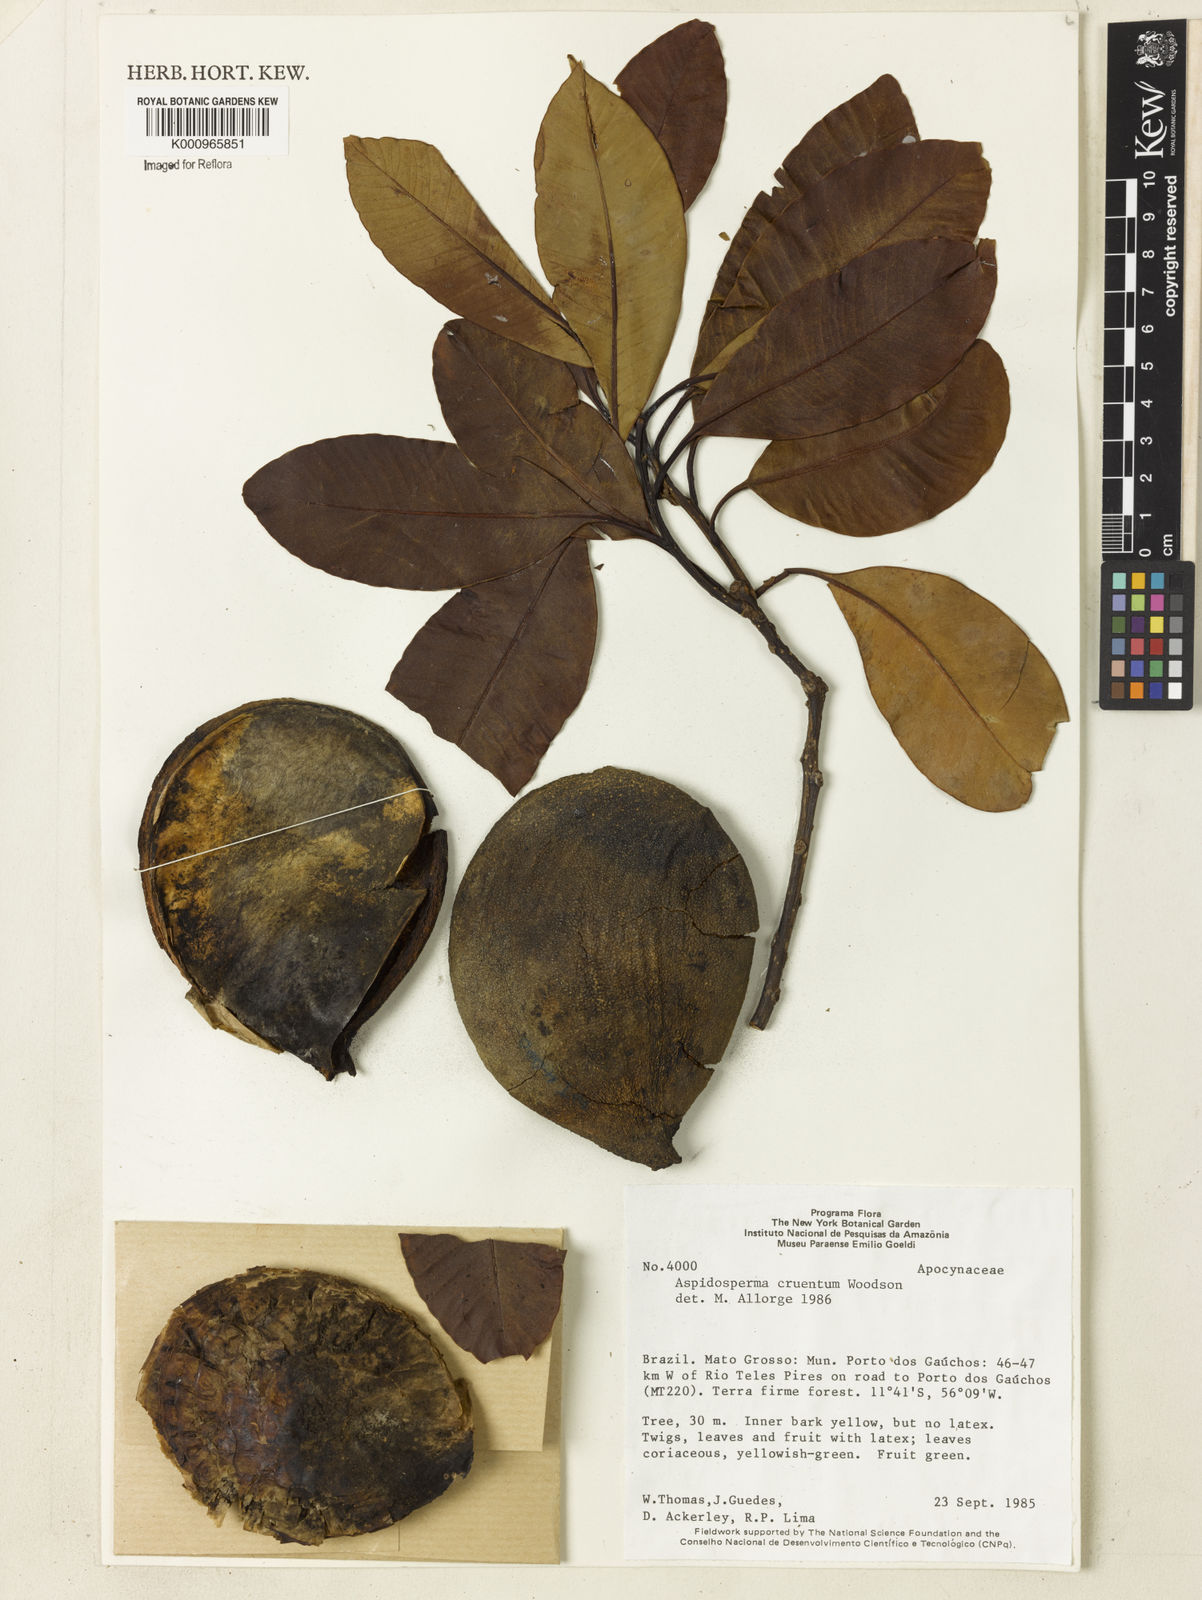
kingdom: Plantae
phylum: Tracheophyta
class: Magnoliopsida
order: Gentianales
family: Apocynaceae
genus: Aspidosperma
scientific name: Aspidosperma
